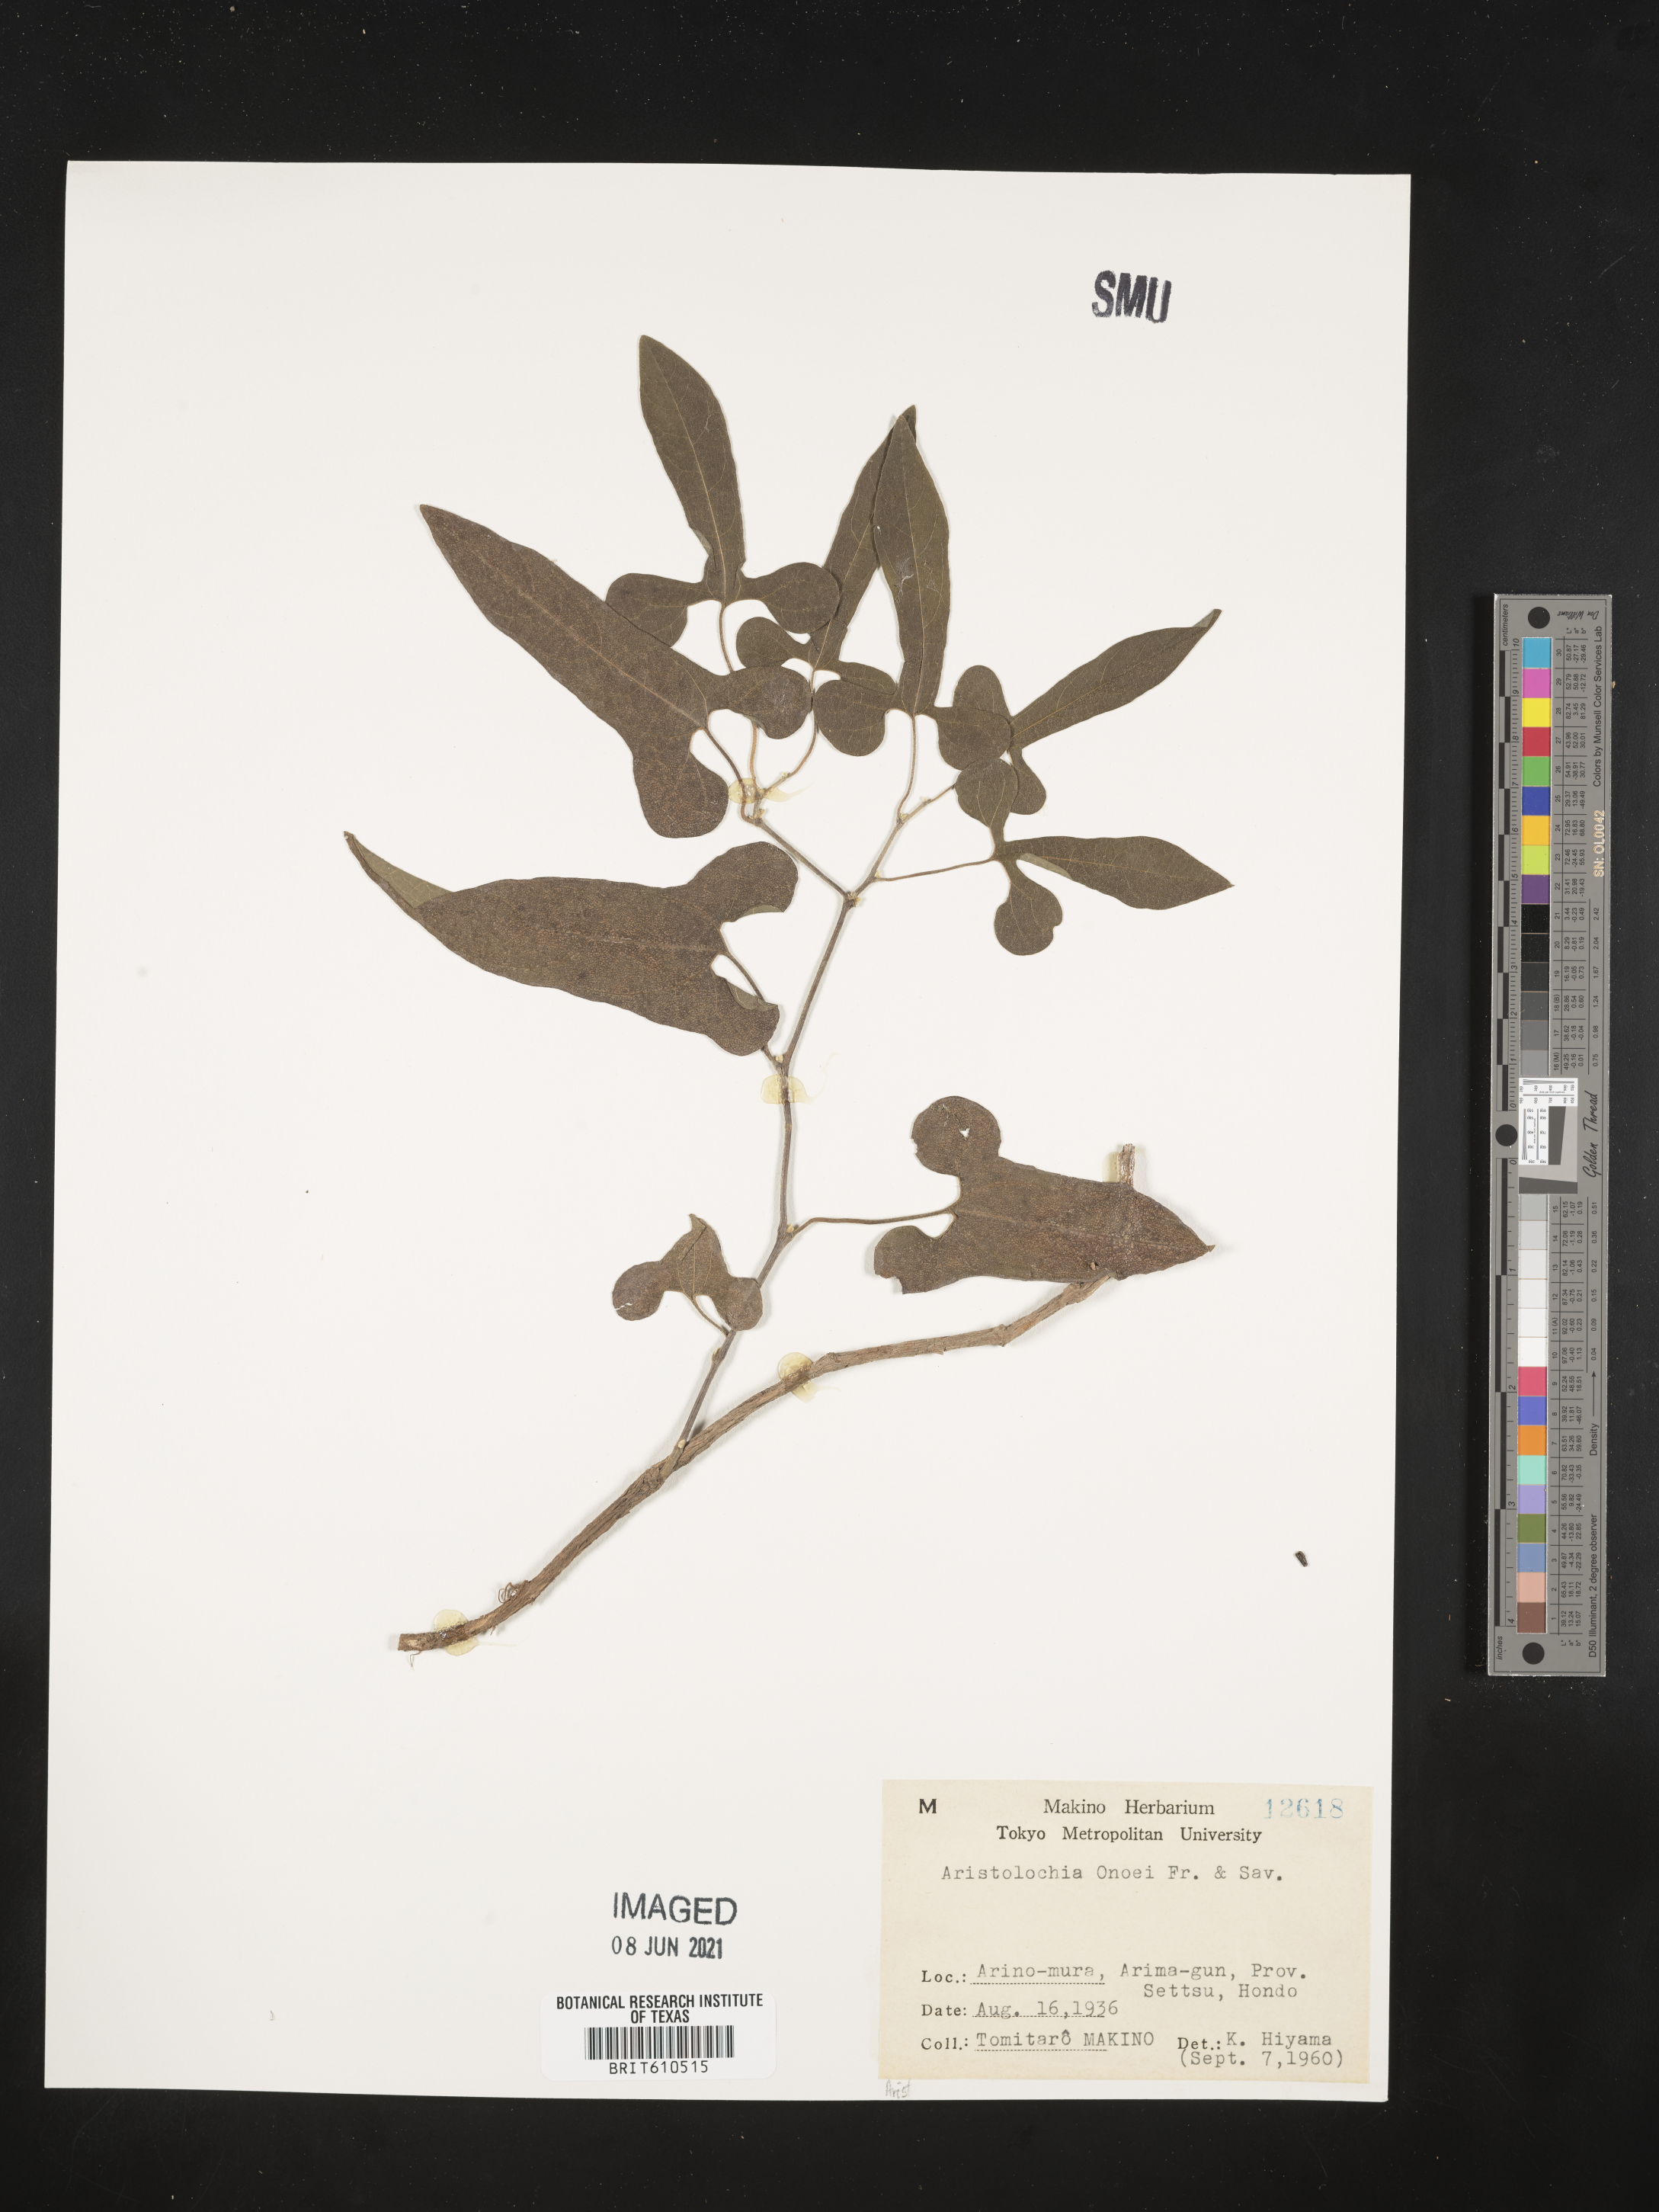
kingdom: Plantae
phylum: Tracheophyta
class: Magnoliopsida
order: Piperales
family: Aristolochiaceae
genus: Isotrema
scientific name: Isotrema shimadae
